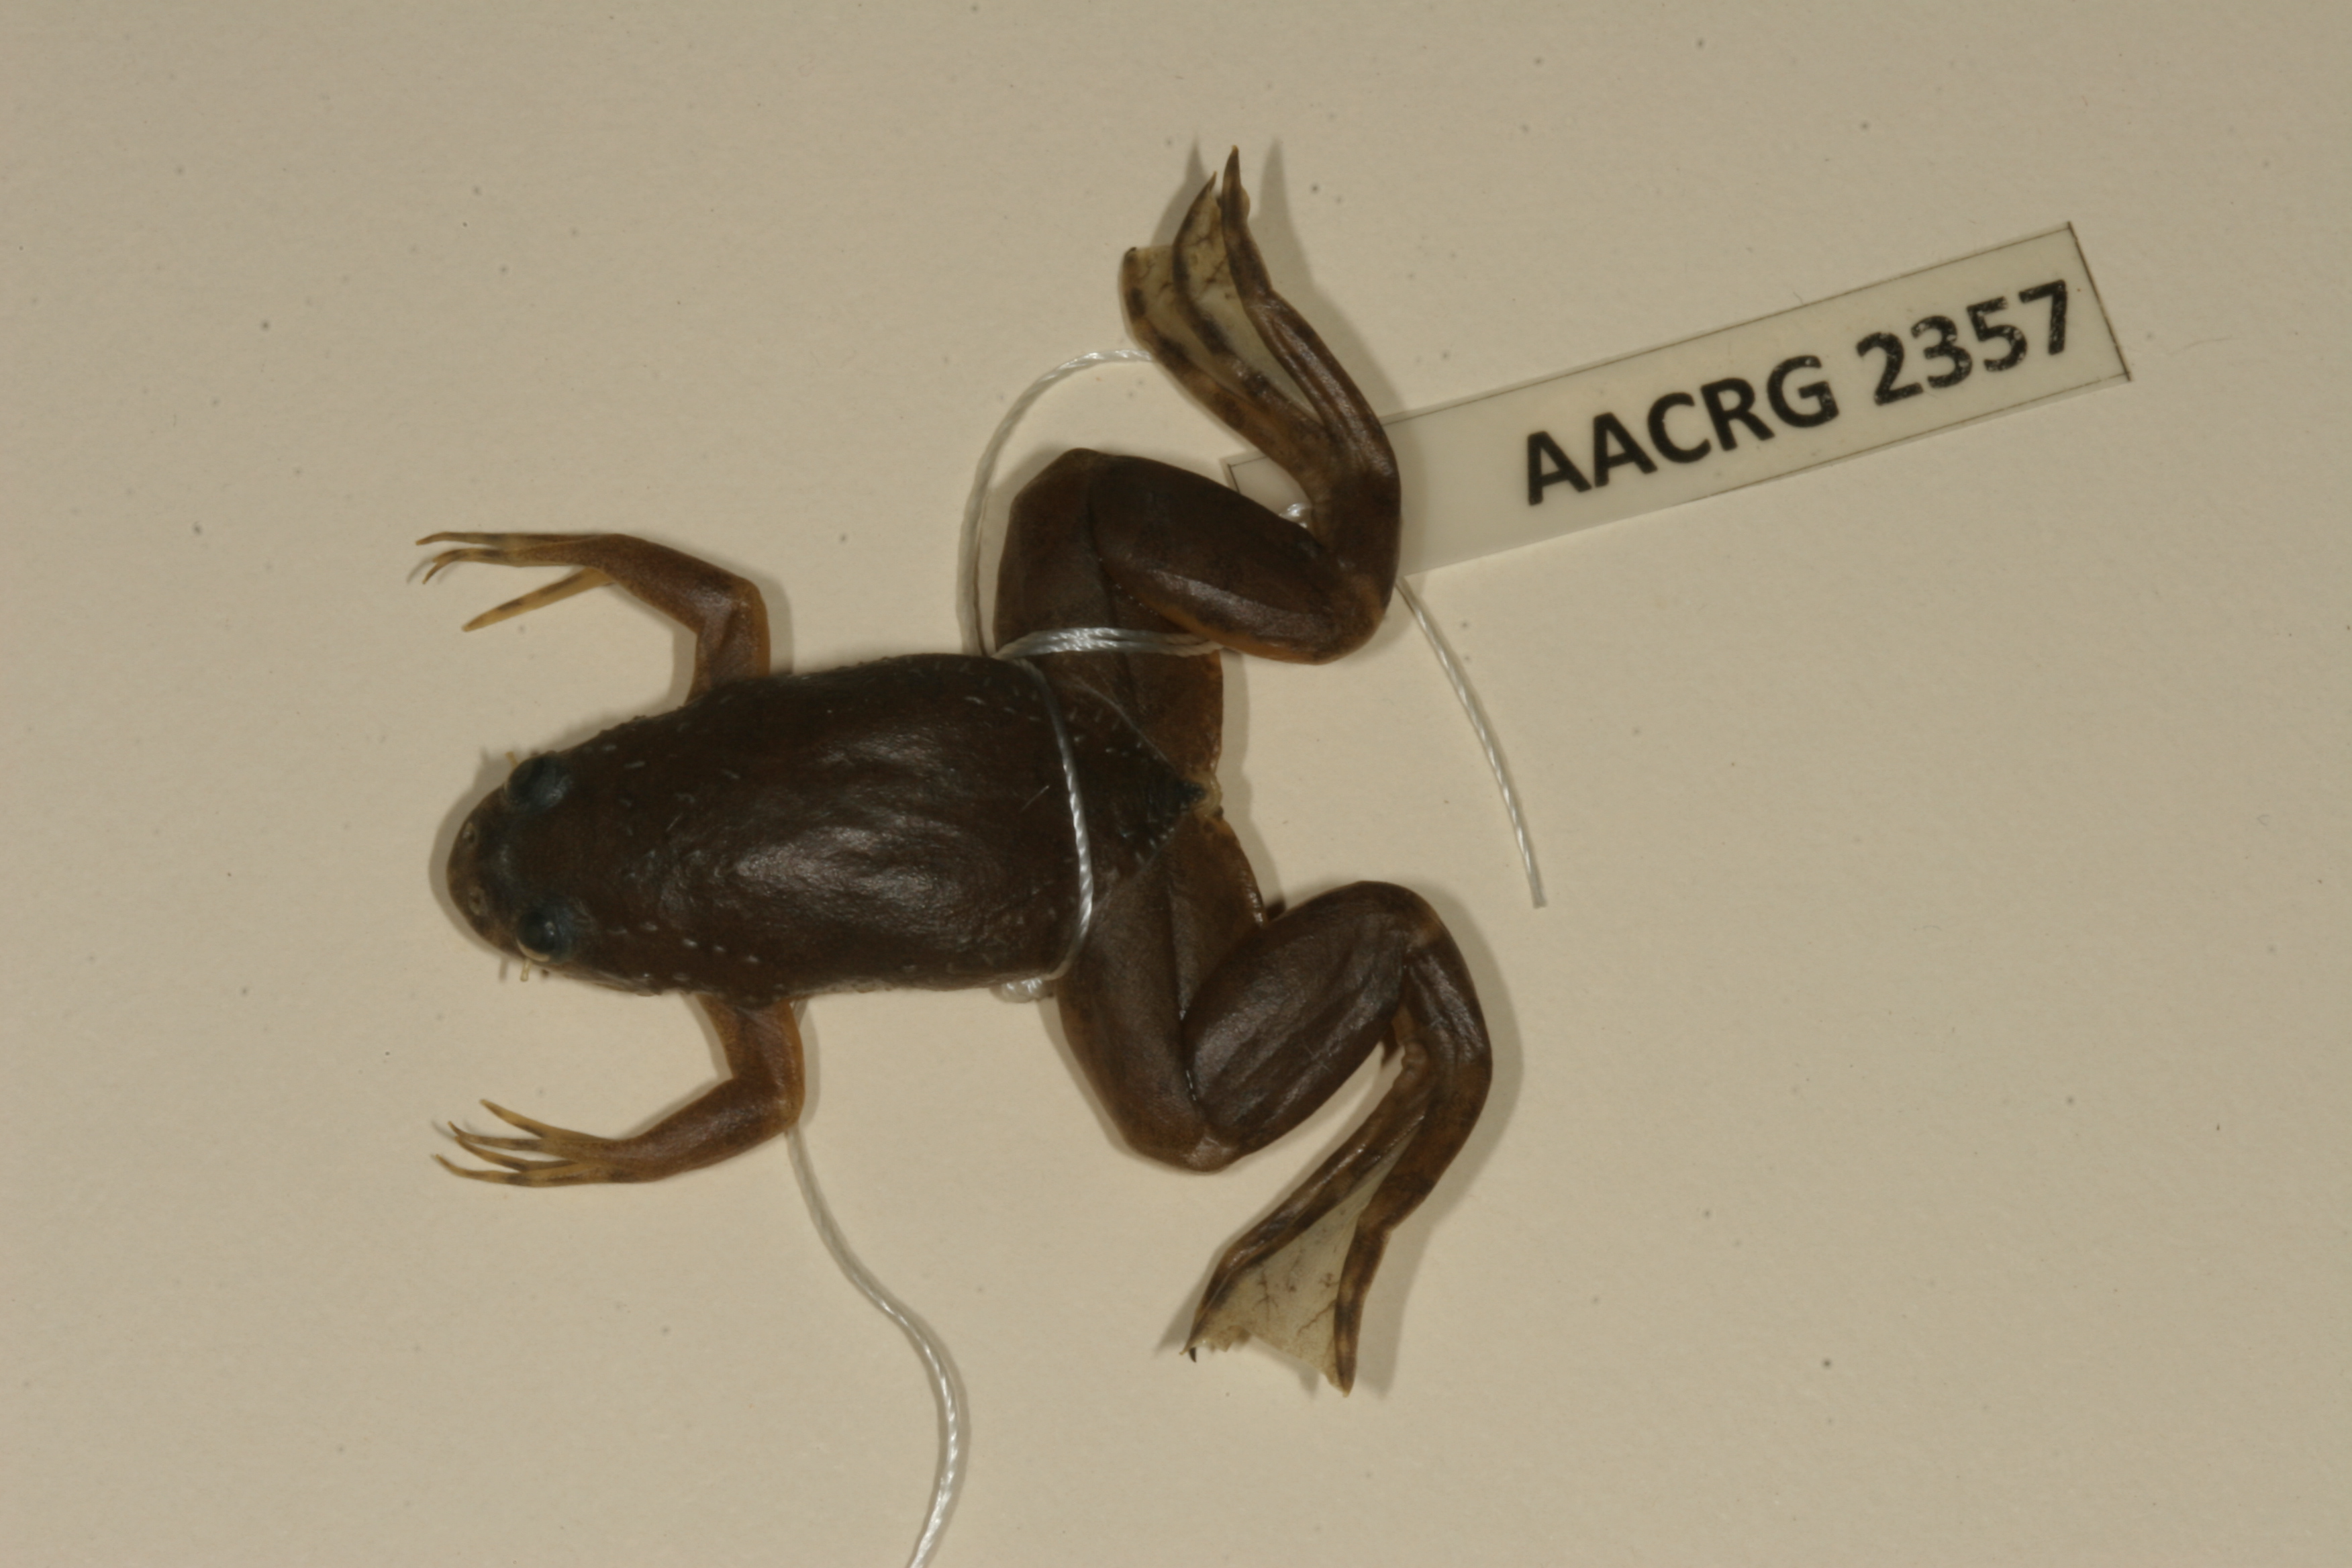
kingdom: Animalia
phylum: Chordata
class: Amphibia
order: Anura
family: Pipidae
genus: Xenopus
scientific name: Xenopus muelleri
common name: Muller's clawed frog
